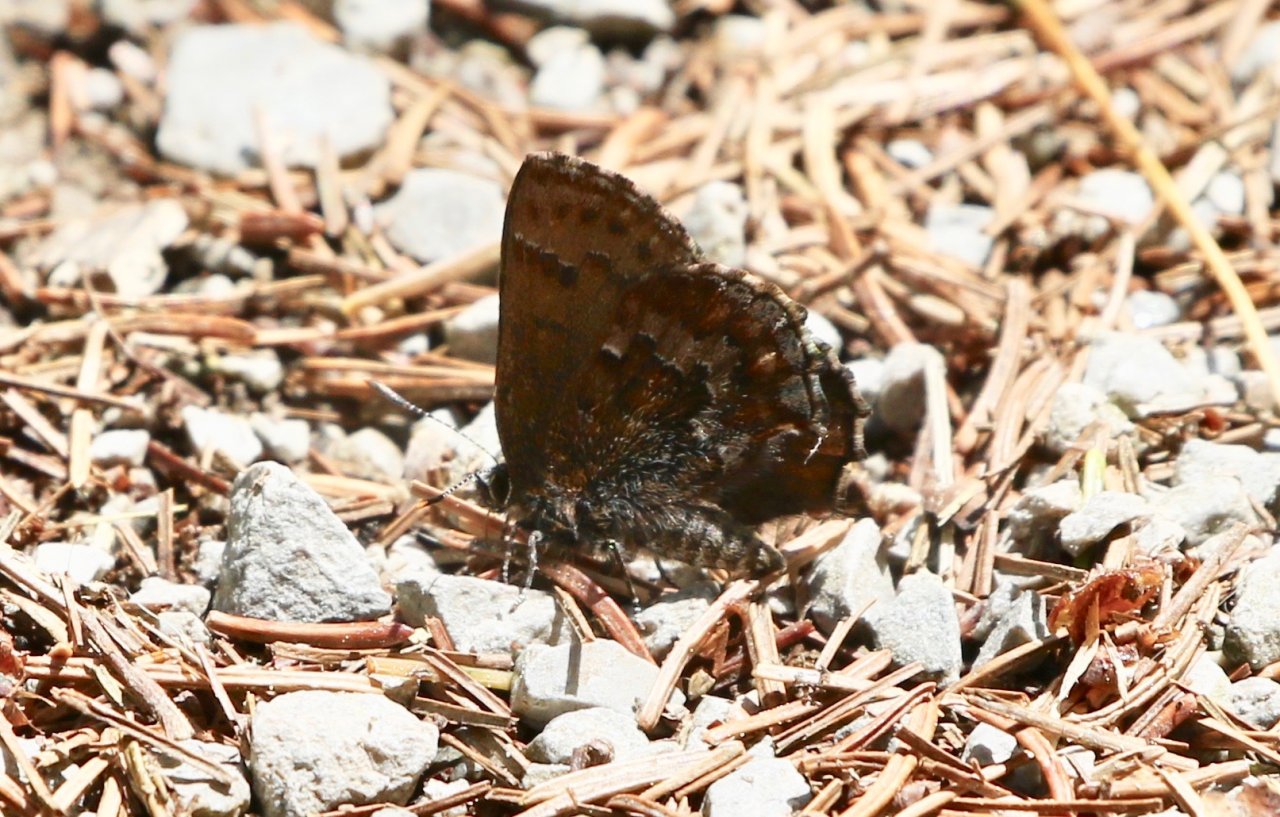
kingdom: Animalia
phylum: Arthropoda
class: Insecta
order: Lepidoptera
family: Lycaenidae
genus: Incisalia
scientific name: Incisalia niphon
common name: Eastern Pine Elfin
